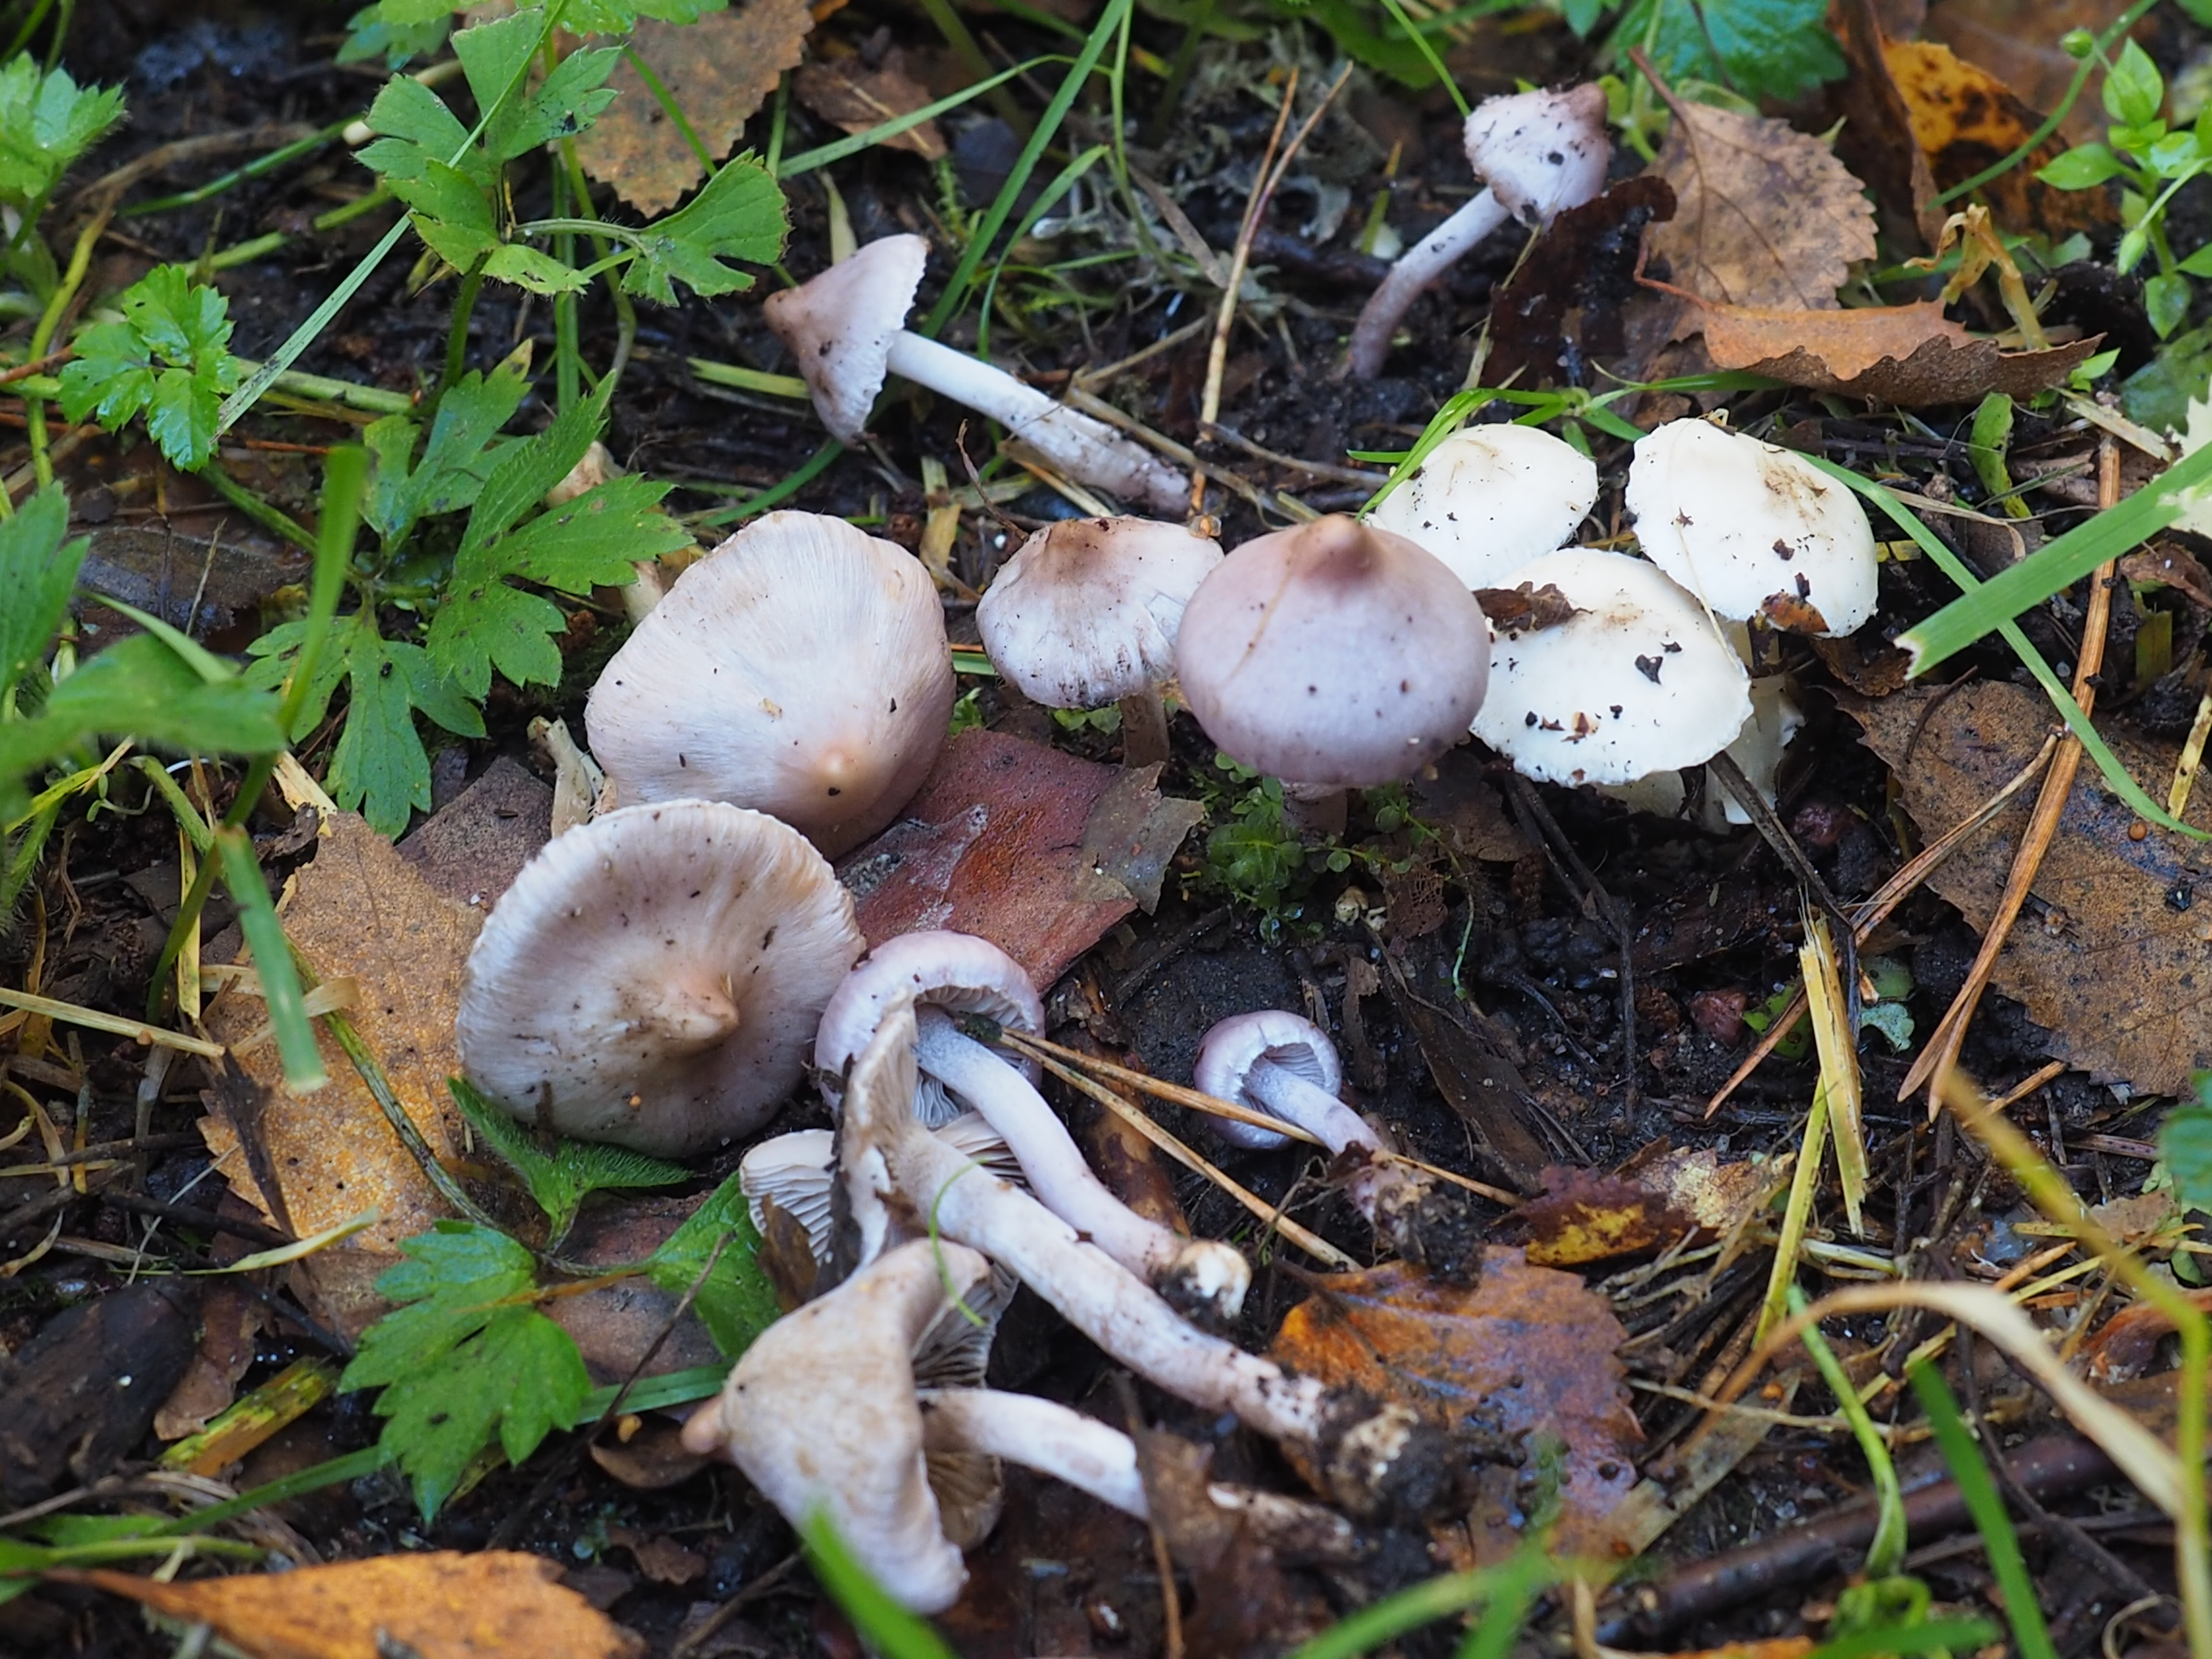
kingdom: Fungi
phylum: Basidiomycota
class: Agaricomycetes
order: Agaricales
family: Inocybaceae
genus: Inocybe
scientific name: Inocybe geophylla
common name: White fibrecap
